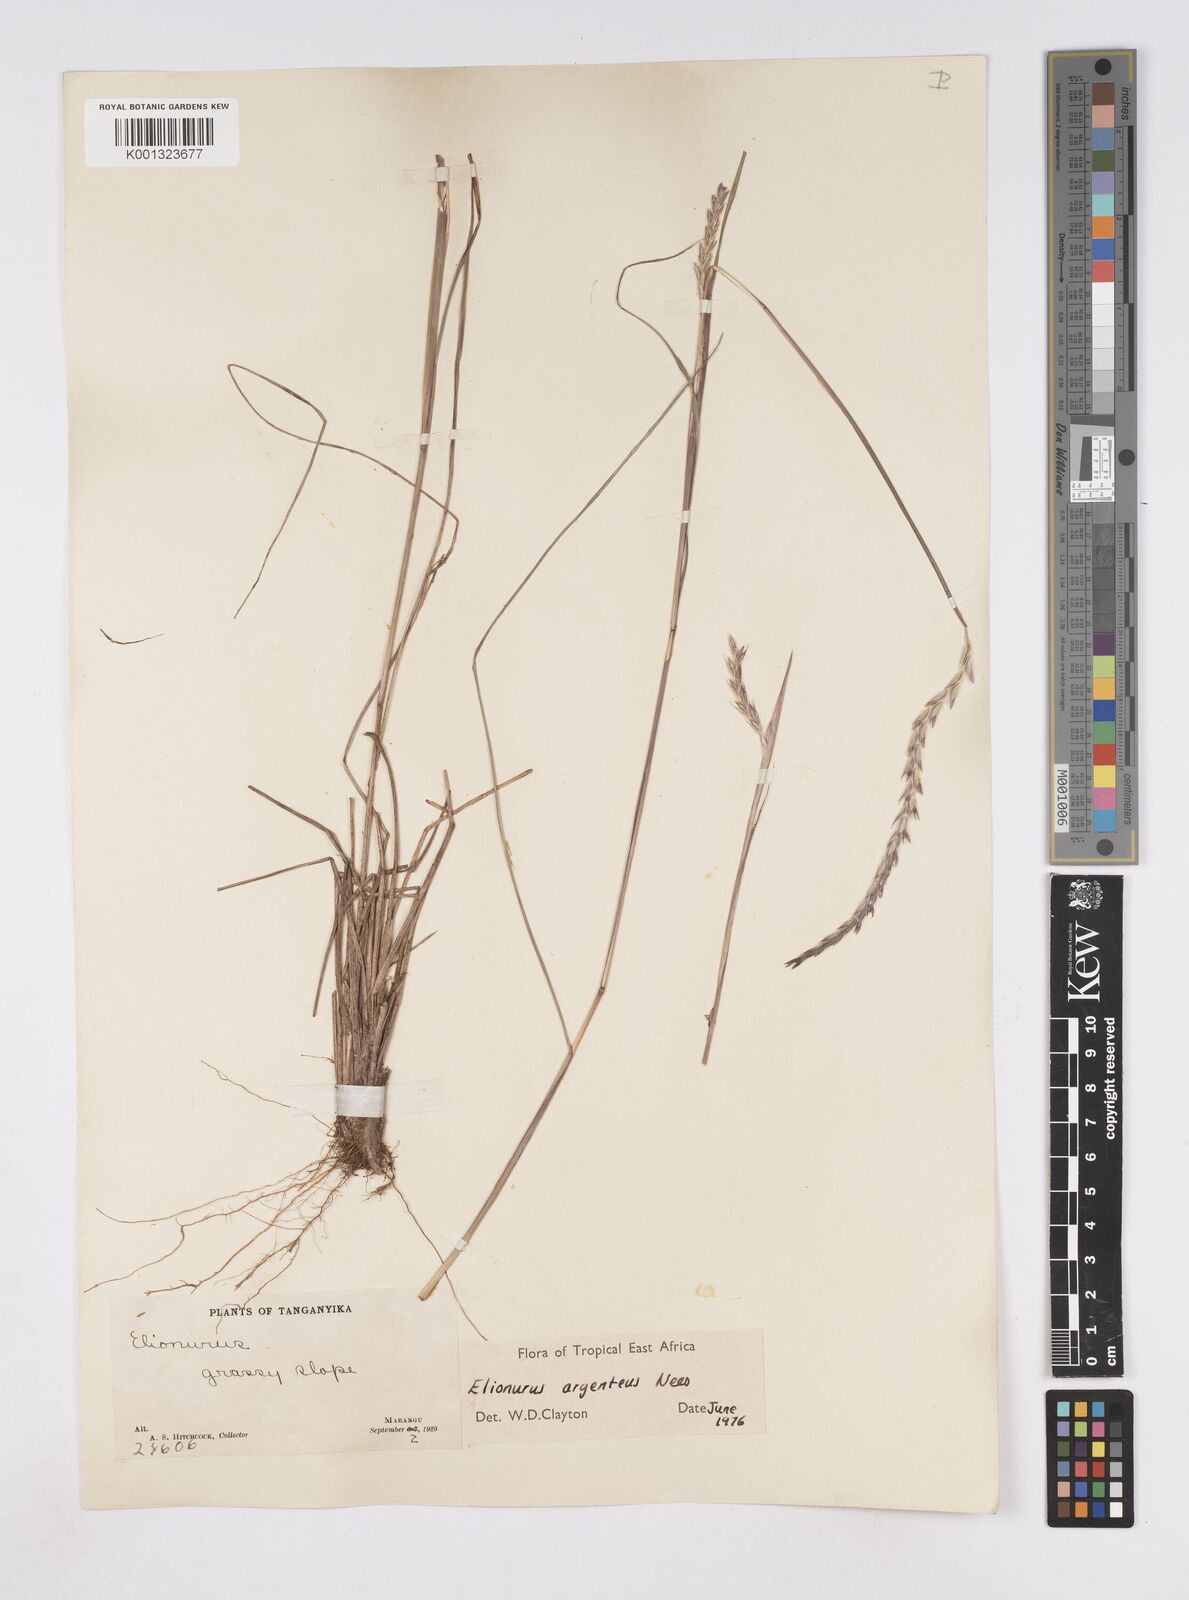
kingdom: Plantae
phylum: Tracheophyta
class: Liliopsida
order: Poales
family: Poaceae
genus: Elionurus
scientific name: Elionurus
